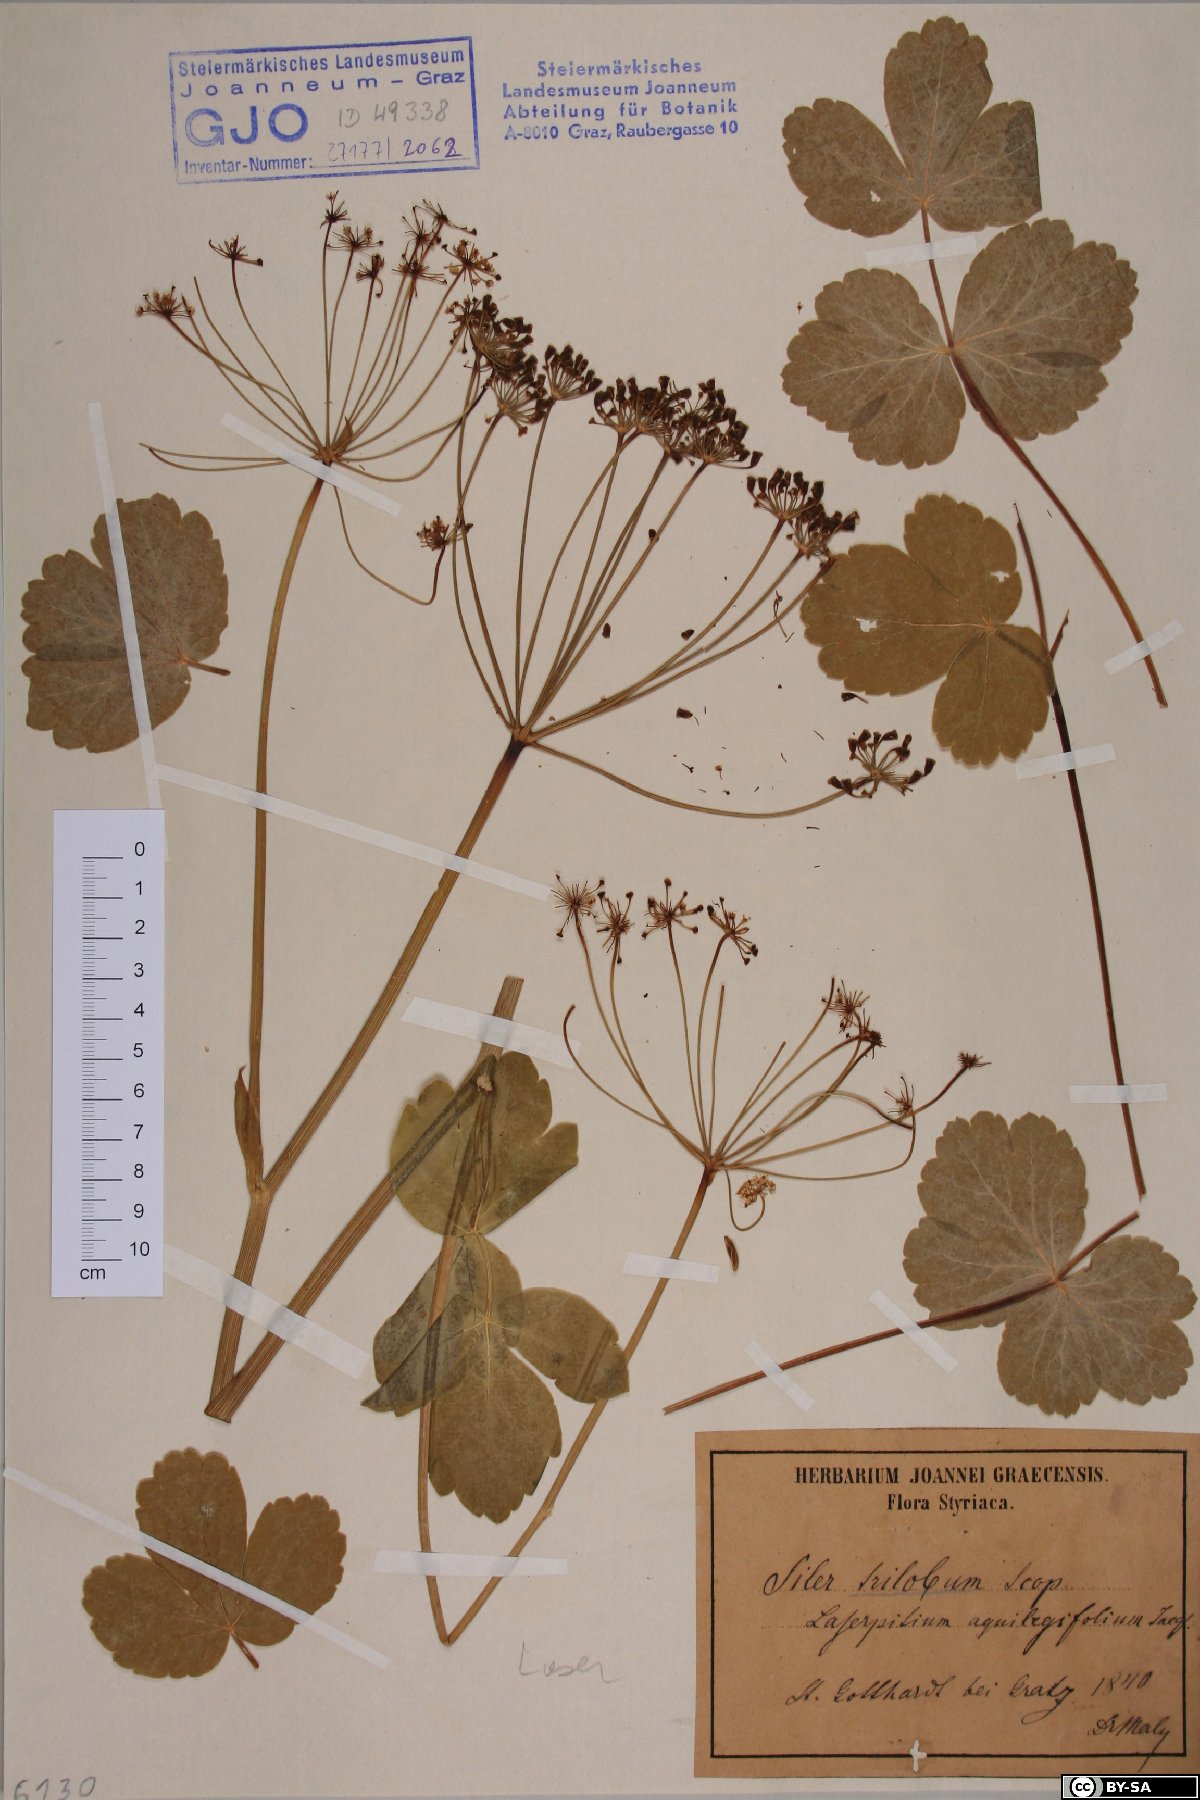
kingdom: Plantae
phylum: Tracheophyta
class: Magnoliopsida
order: Apiales
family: Apiaceae
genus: Laser
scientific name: Laser trilobum
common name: Laser
